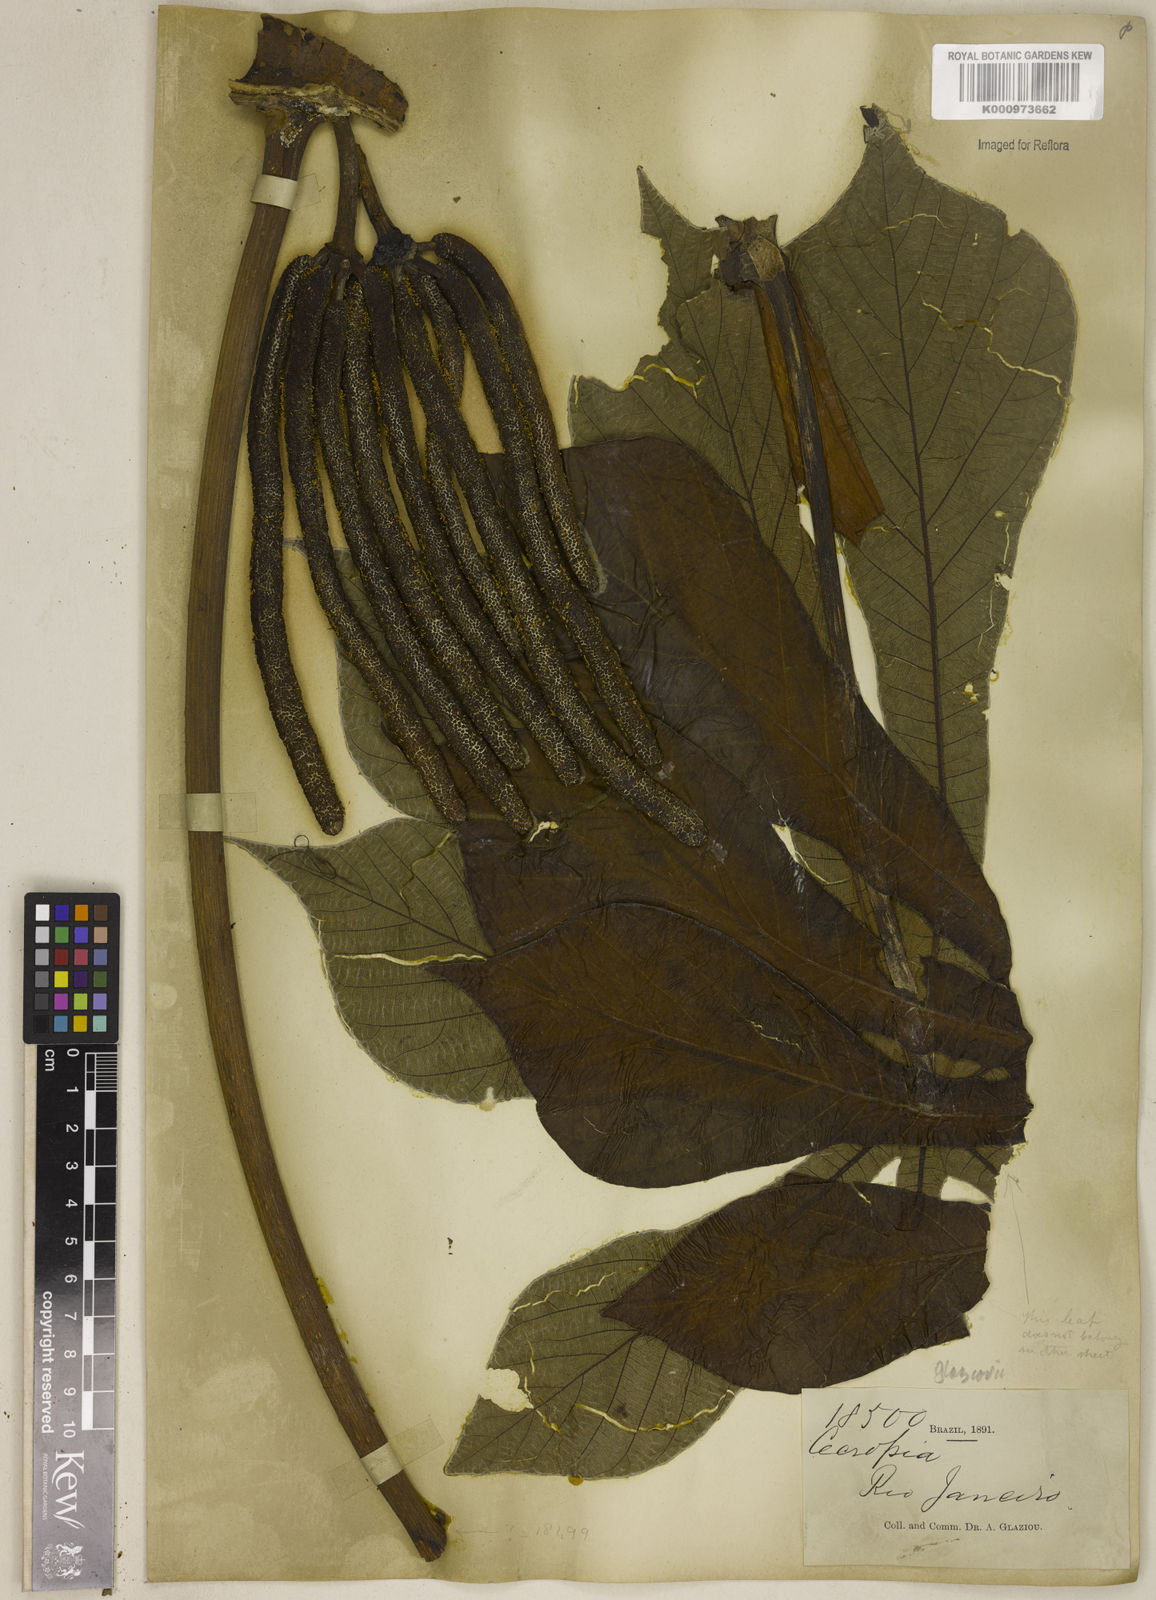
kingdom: Plantae
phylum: Tracheophyta
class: Magnoliopsida
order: Rosales
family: Urticaceae
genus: Cecropia
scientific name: Cecropia glaziovii
